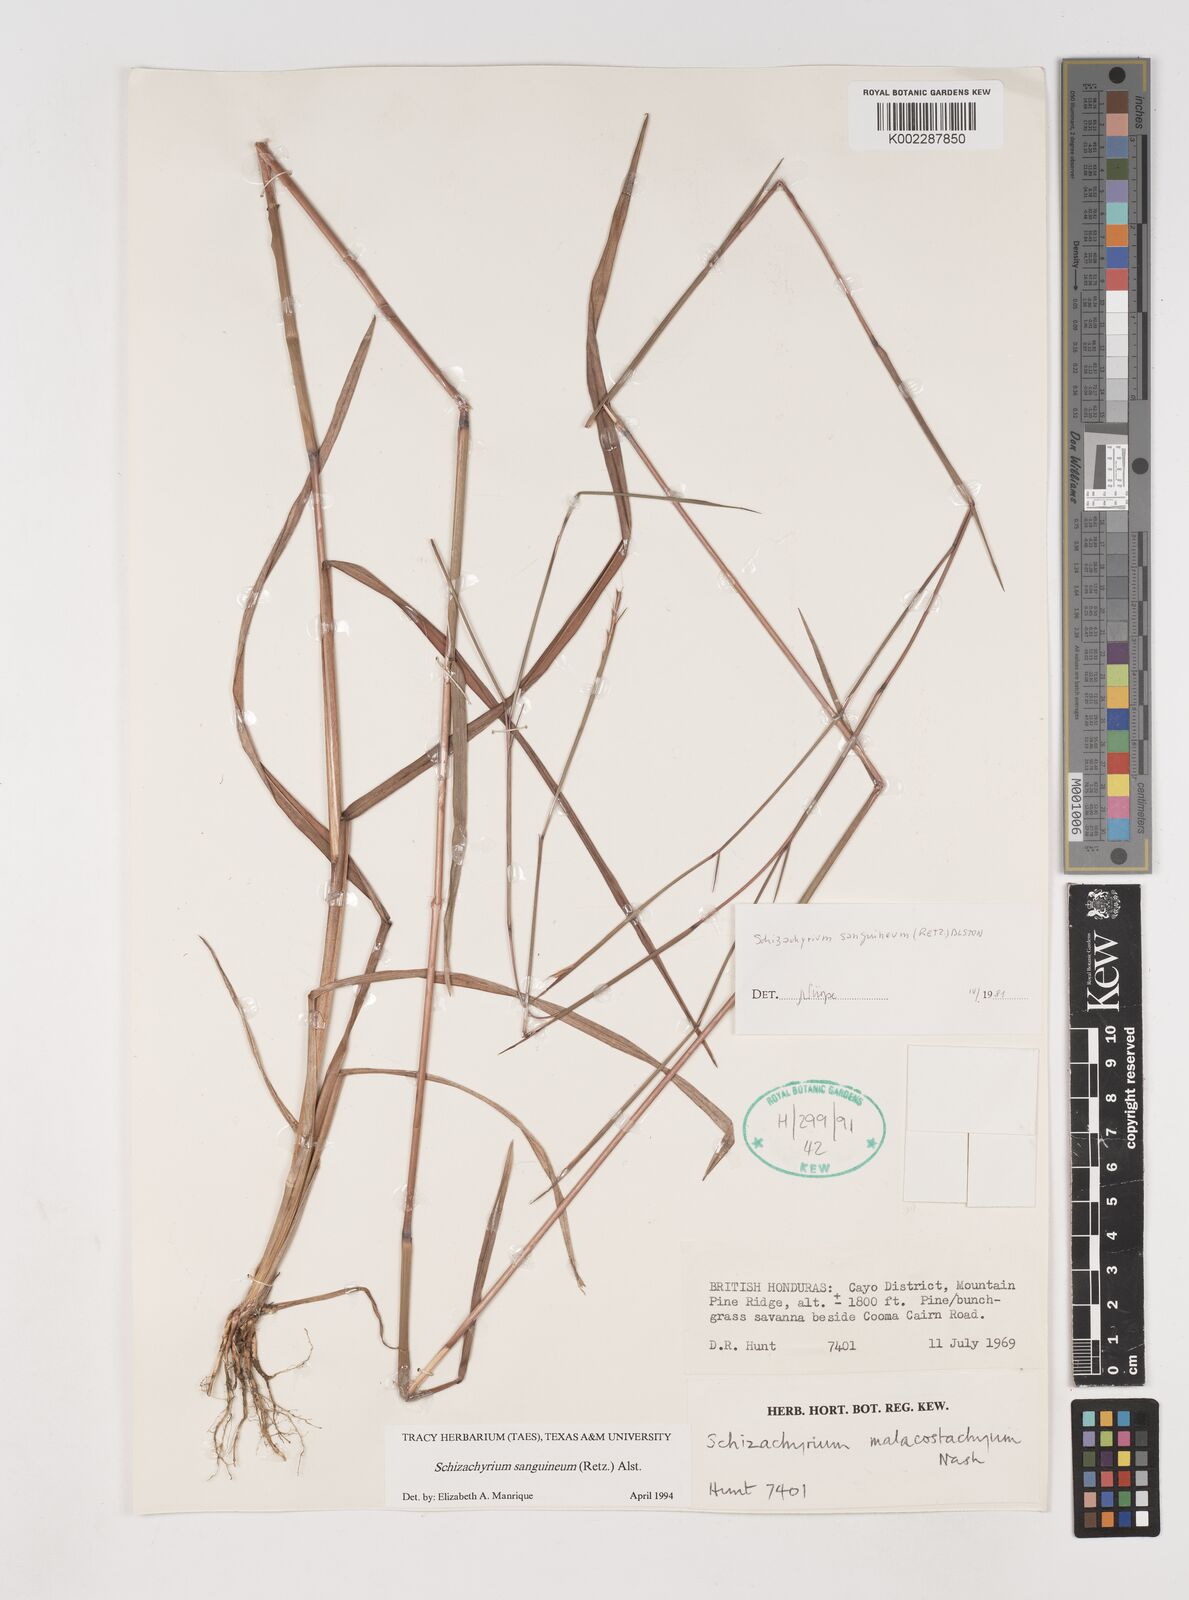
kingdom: Plantae
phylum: Tracheophyta
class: Liliopsida
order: Poales
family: Poaceae
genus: Schizachyrium
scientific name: Schizachyrium sanguineum
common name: Crimson bluestem
